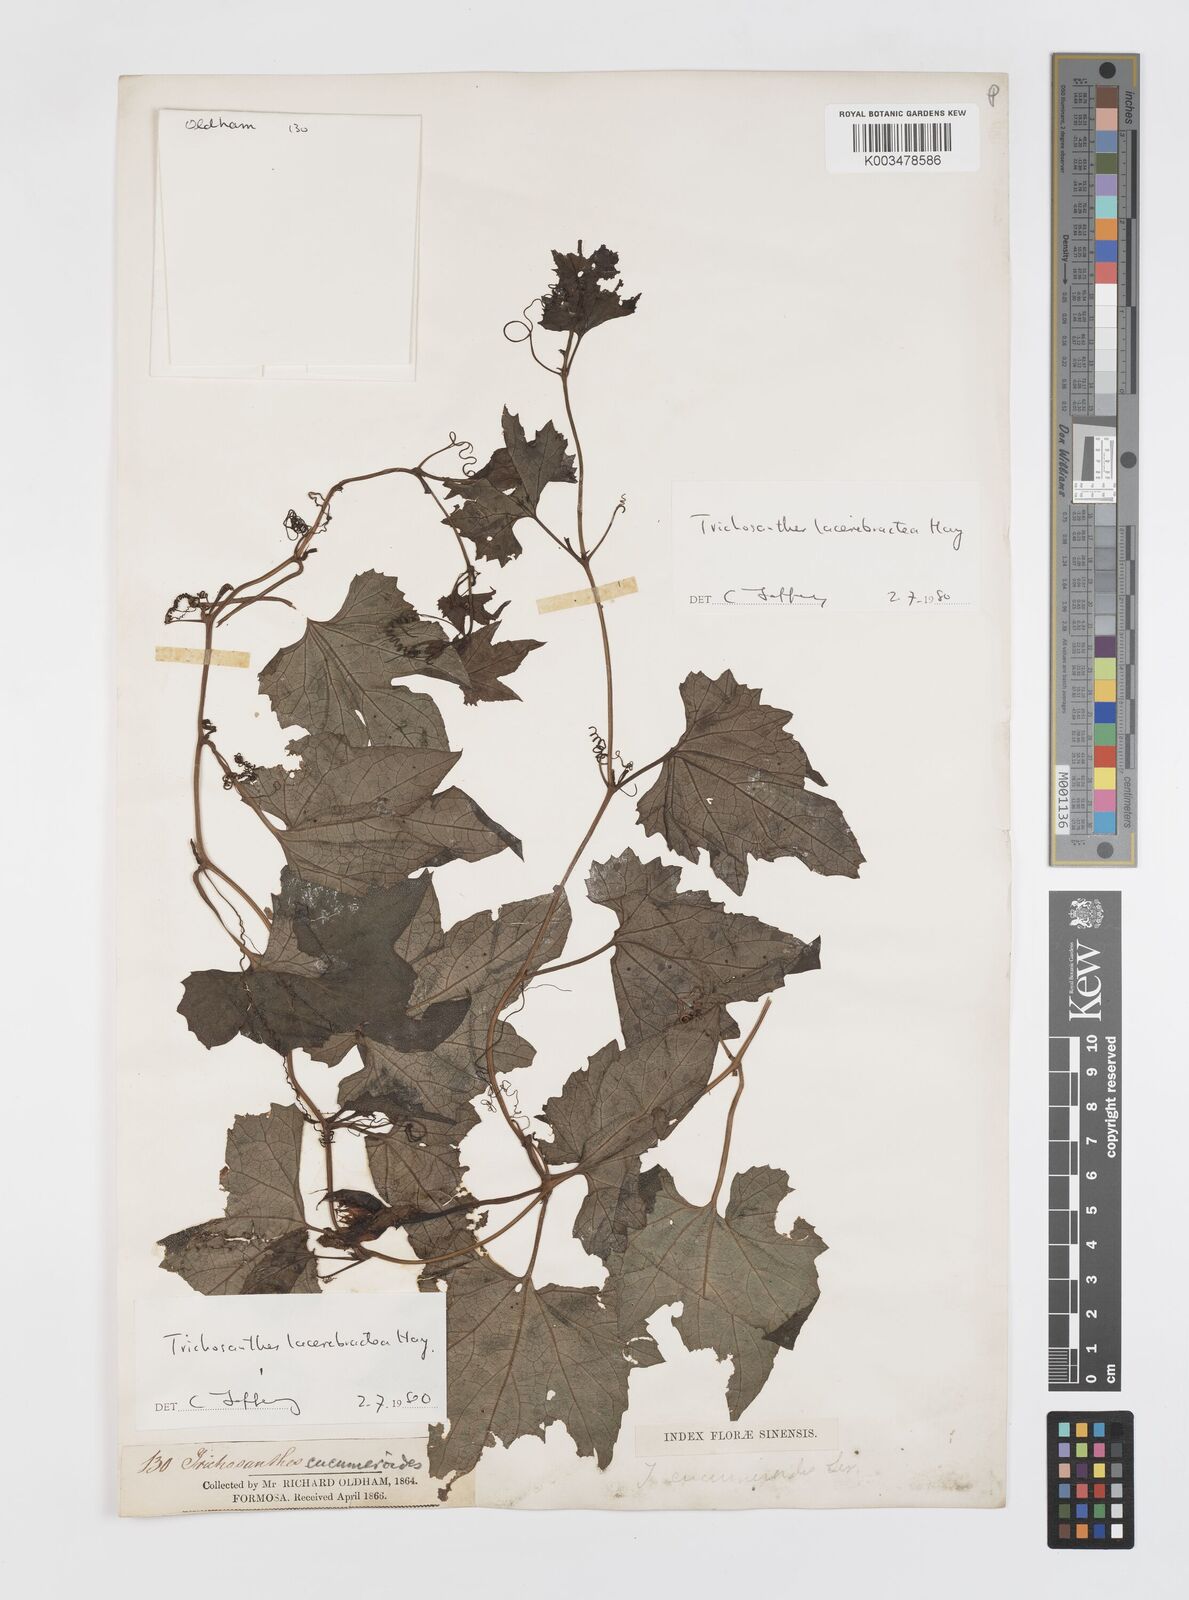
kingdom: Plantae
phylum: Tracheophyta
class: Magnoliopsida
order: Cucurbitales
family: Cucurbitaceae
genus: Trichosanthes
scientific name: Trichosanthes laceribractea
